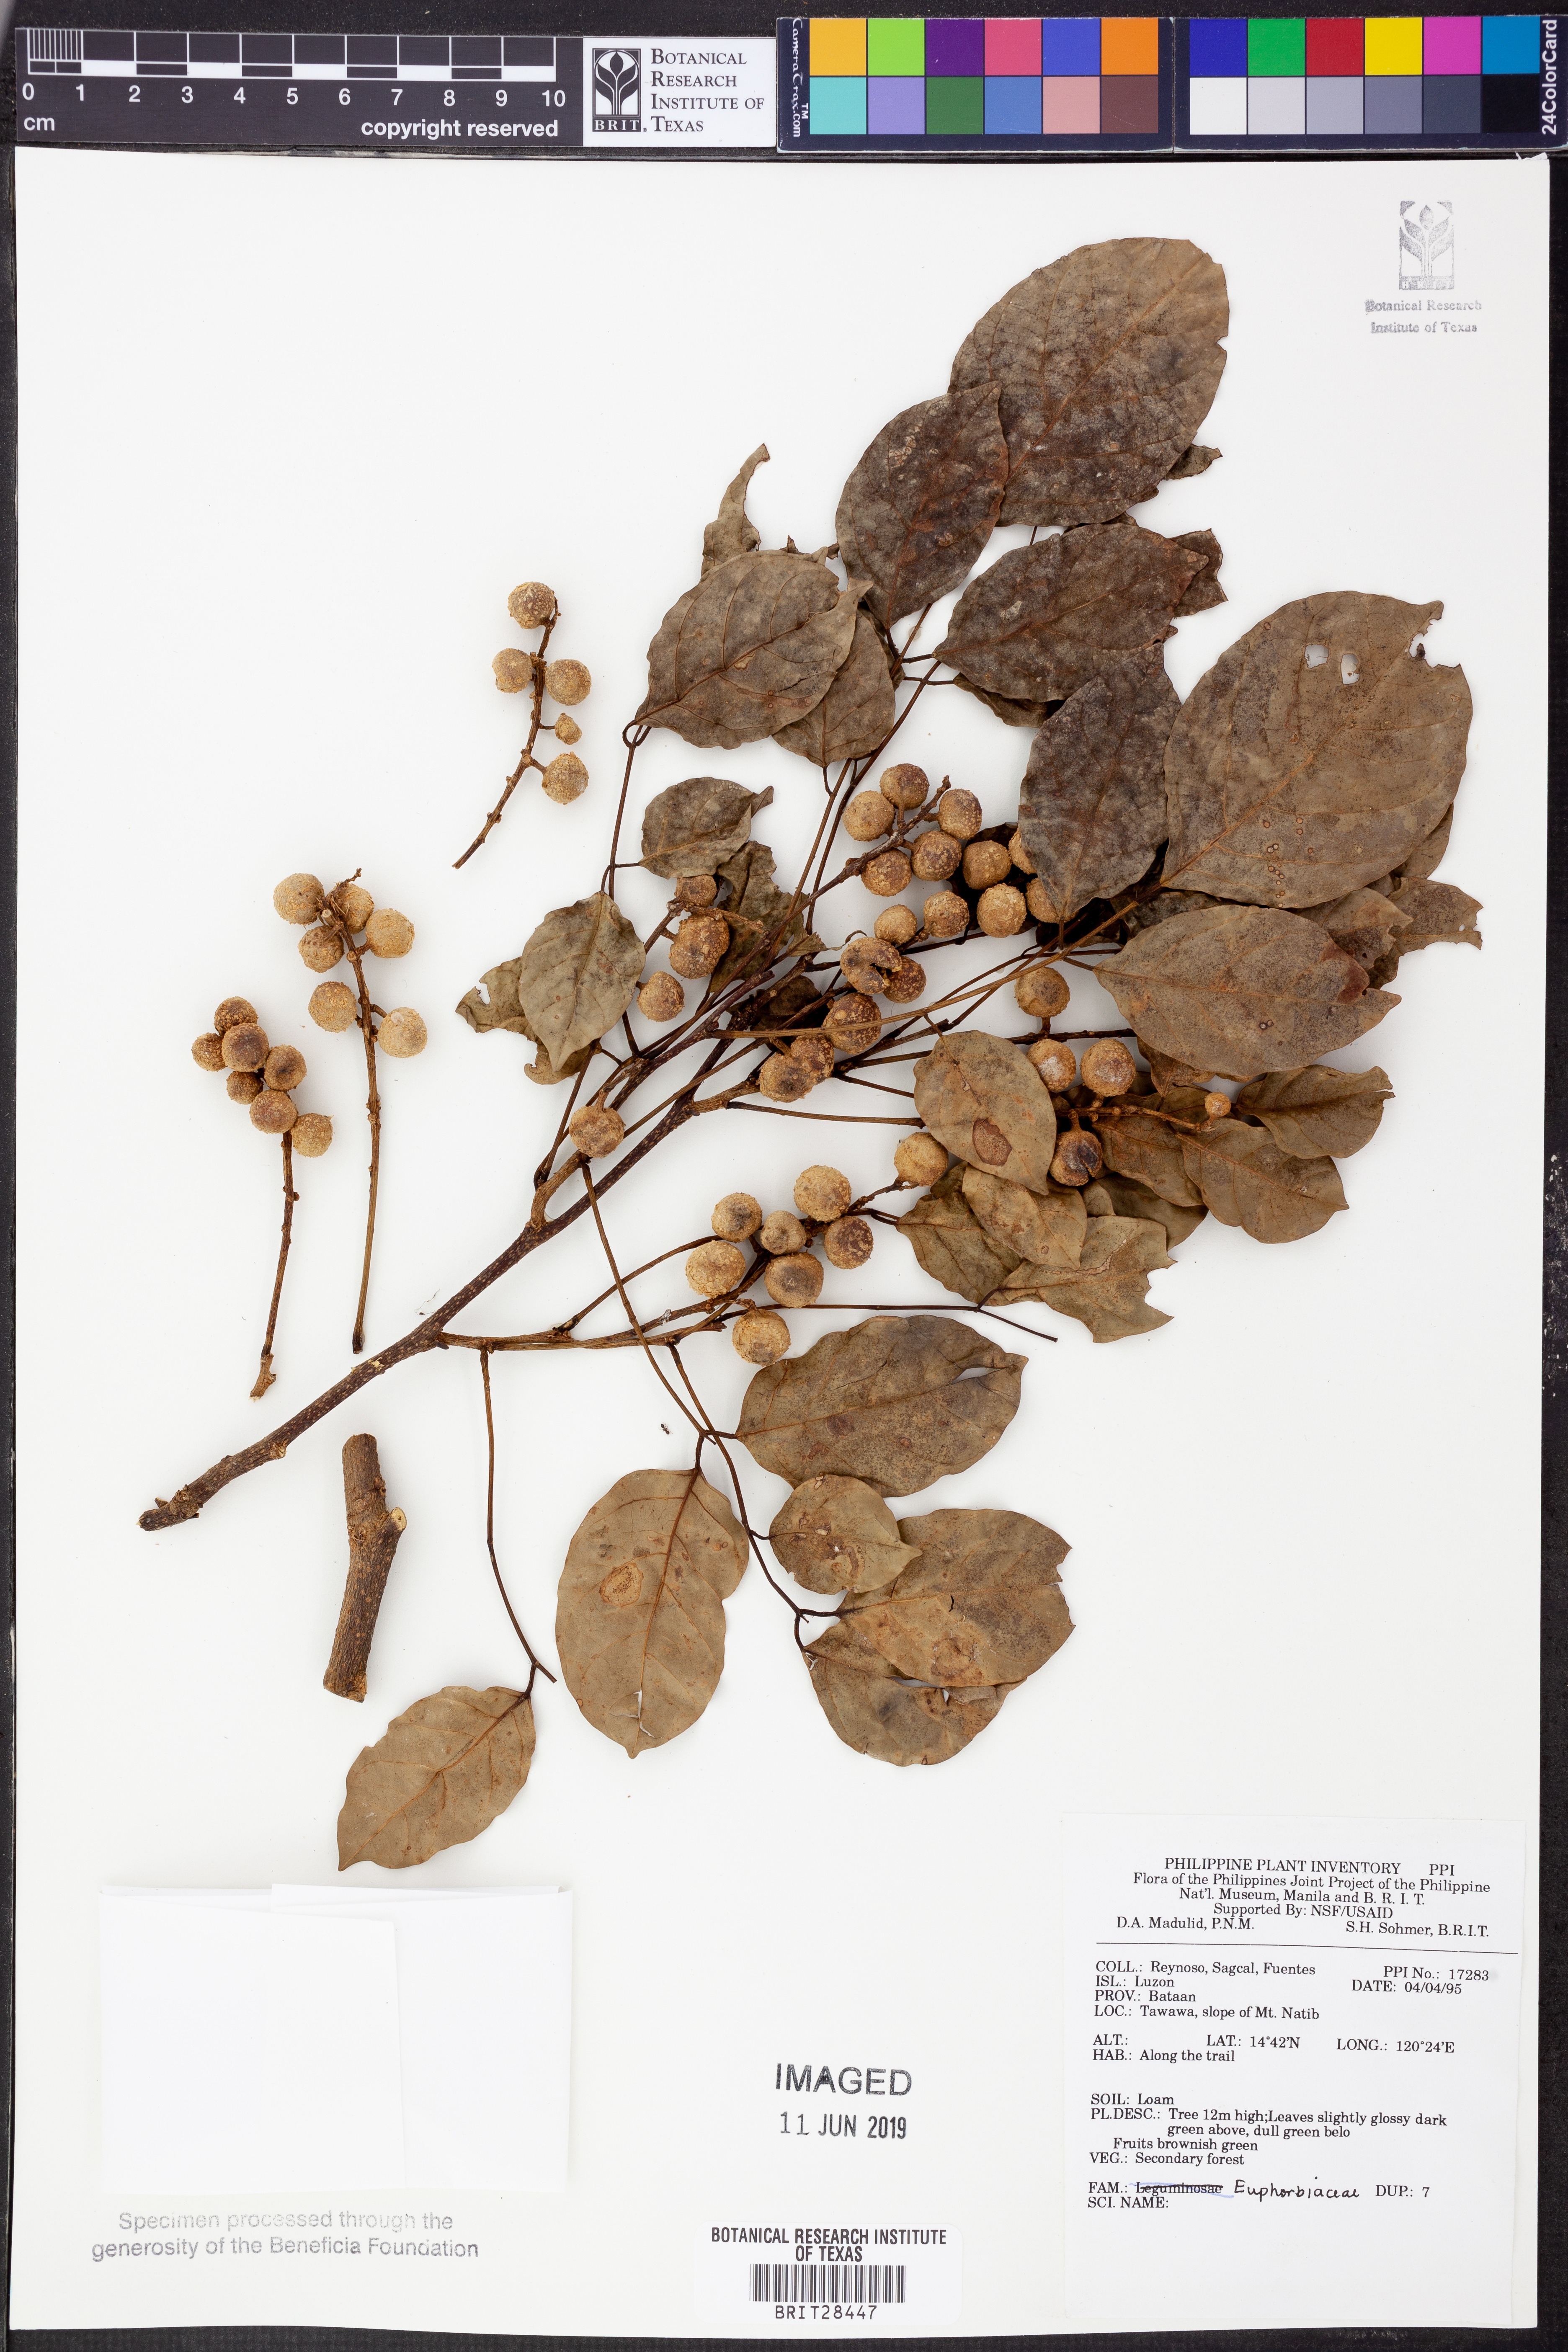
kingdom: Plantae
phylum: Tracheophyta
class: Magnoliopsida
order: Malpighiales
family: Euphorbiaceae
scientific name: Euphorbiaceae
